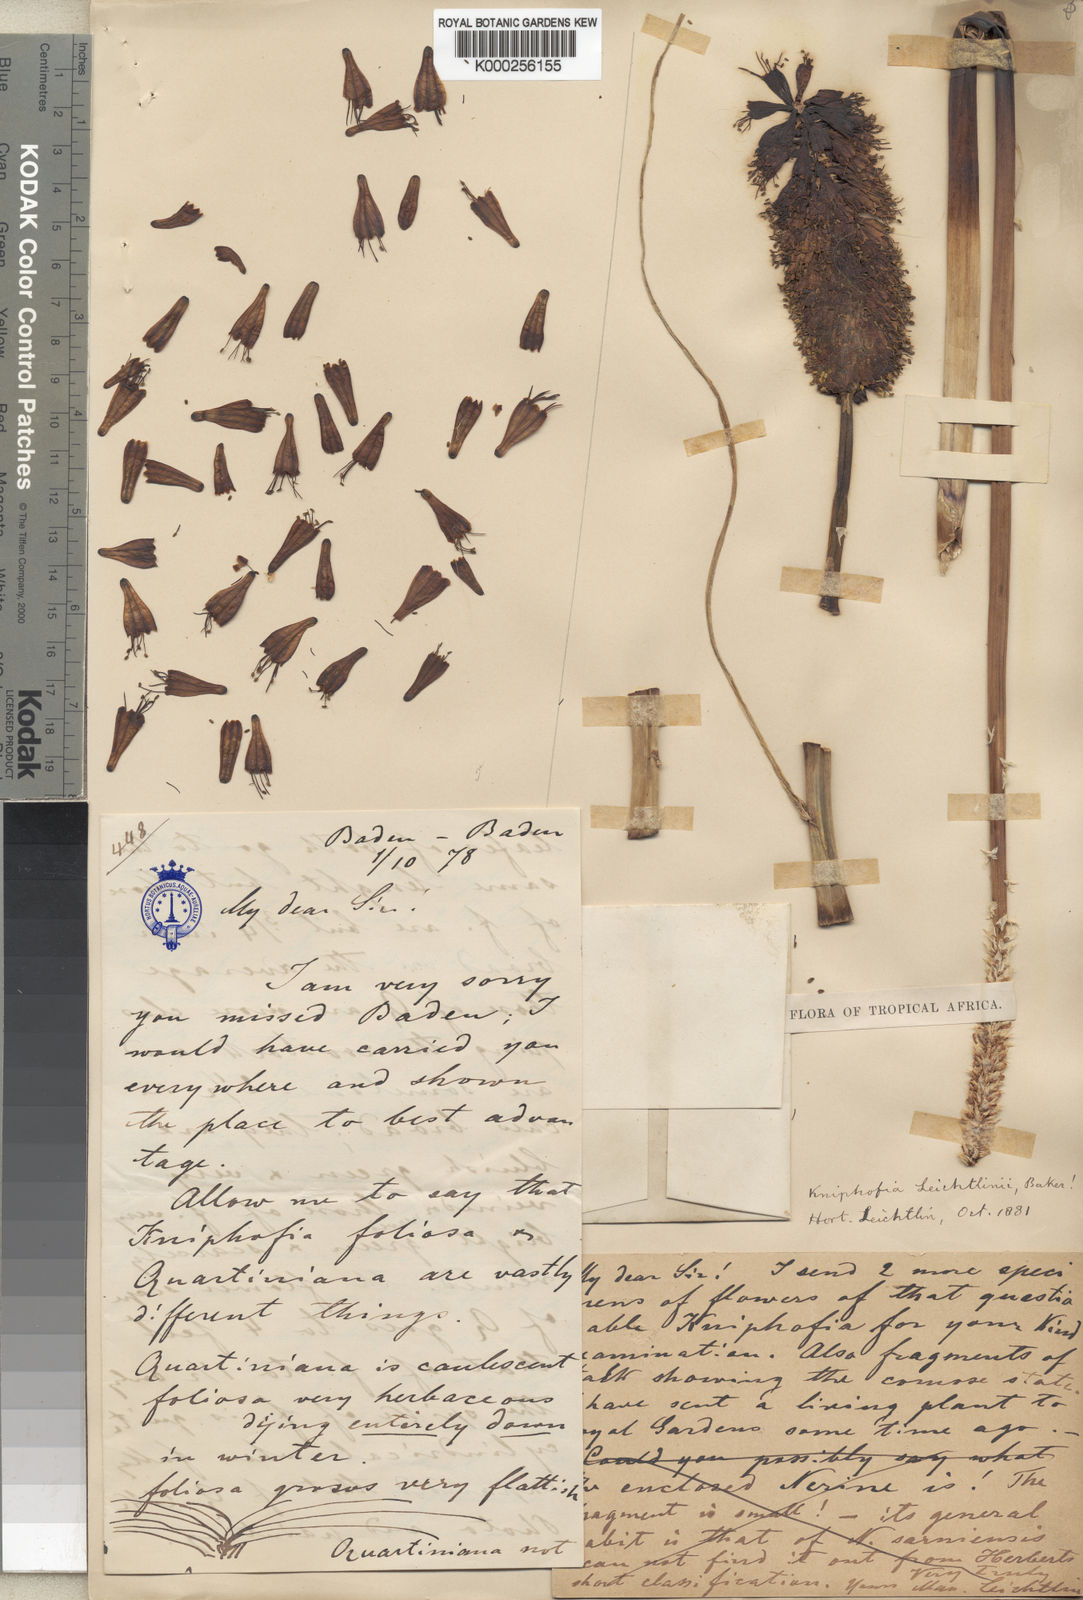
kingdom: Plantae
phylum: Tracheophyta
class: Liliopsida
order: Asparagales
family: Asphodelaceae
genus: Kniphofia
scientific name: Kniphofia pumila
